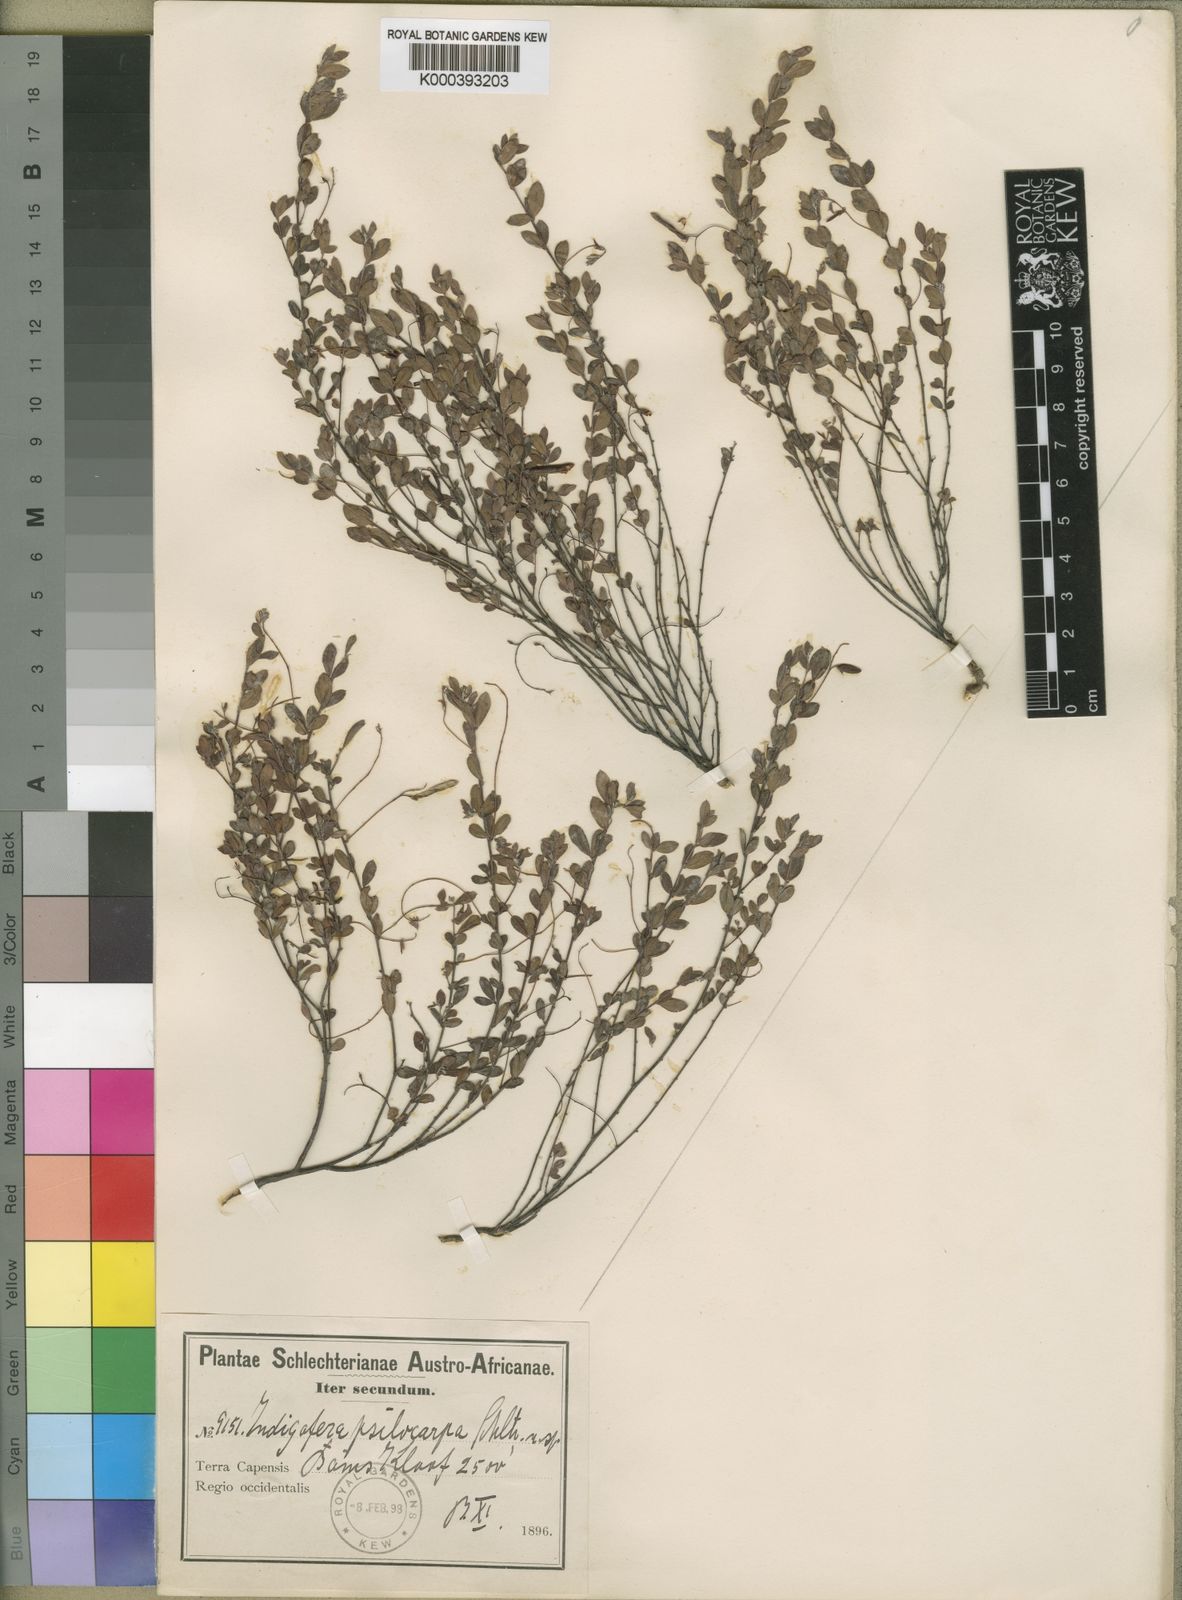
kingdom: Plantae
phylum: Tracheophyta
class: Magnoliopsida
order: Fabales
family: Fabaceae
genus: Indigofera
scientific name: Indigofera sarmentosa
